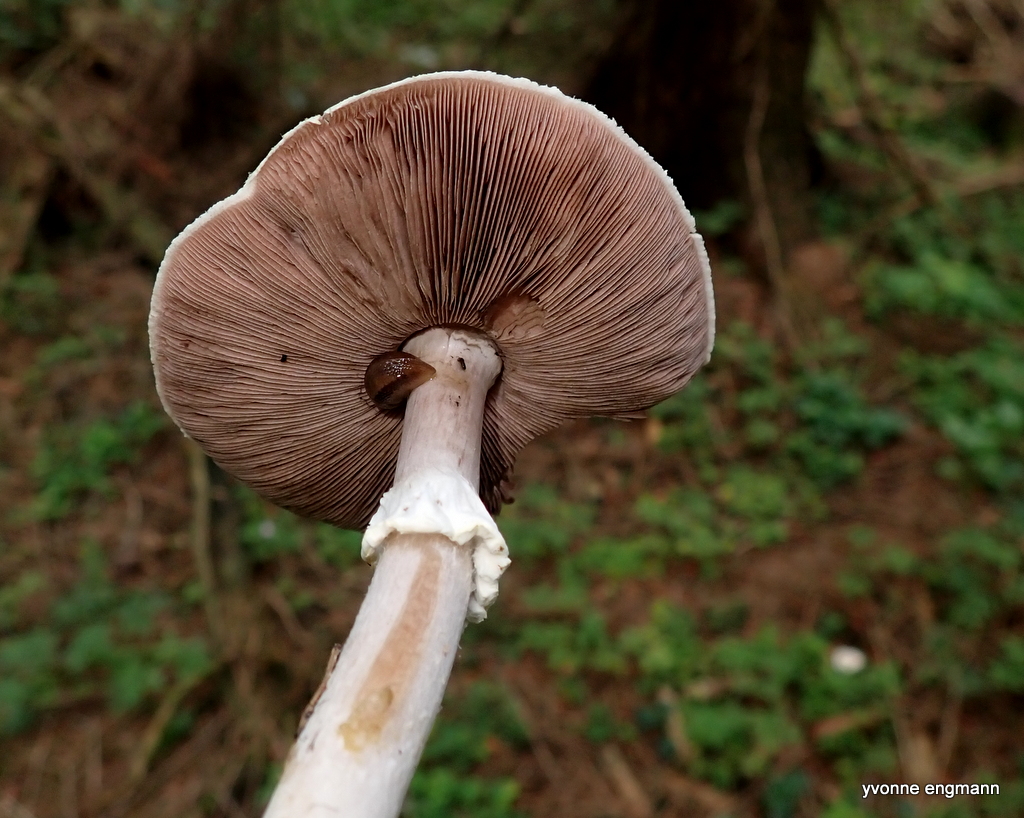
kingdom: Fungi
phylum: Basidiomycota
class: Agaricomycetes
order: Agaricales
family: Agaricaceae
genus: Agaricus
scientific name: Agaricus sylvicola
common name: skiveknoldet champignon
